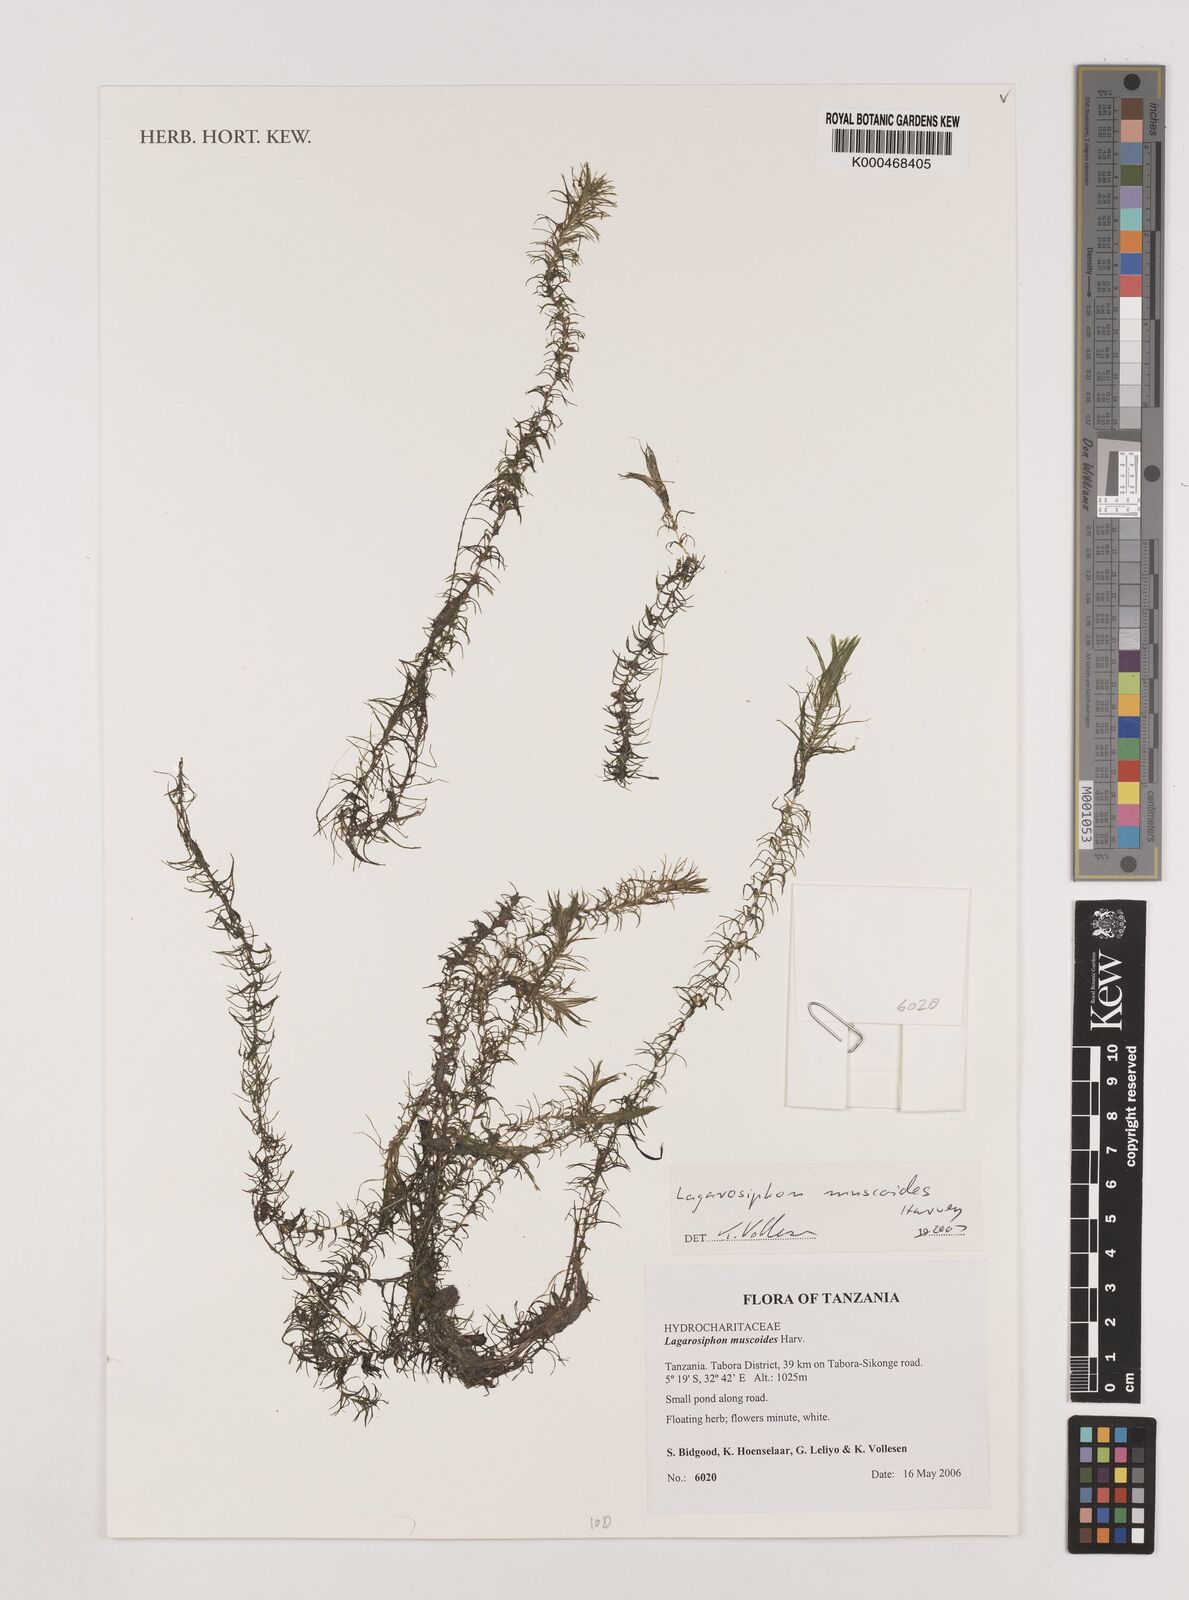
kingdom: Plantae
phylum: Tracheophyta
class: Liliopsida
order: Alismatales
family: Hydrocharitaceae
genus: Lagarosiphon
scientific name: Lagarosiphon muscoides
